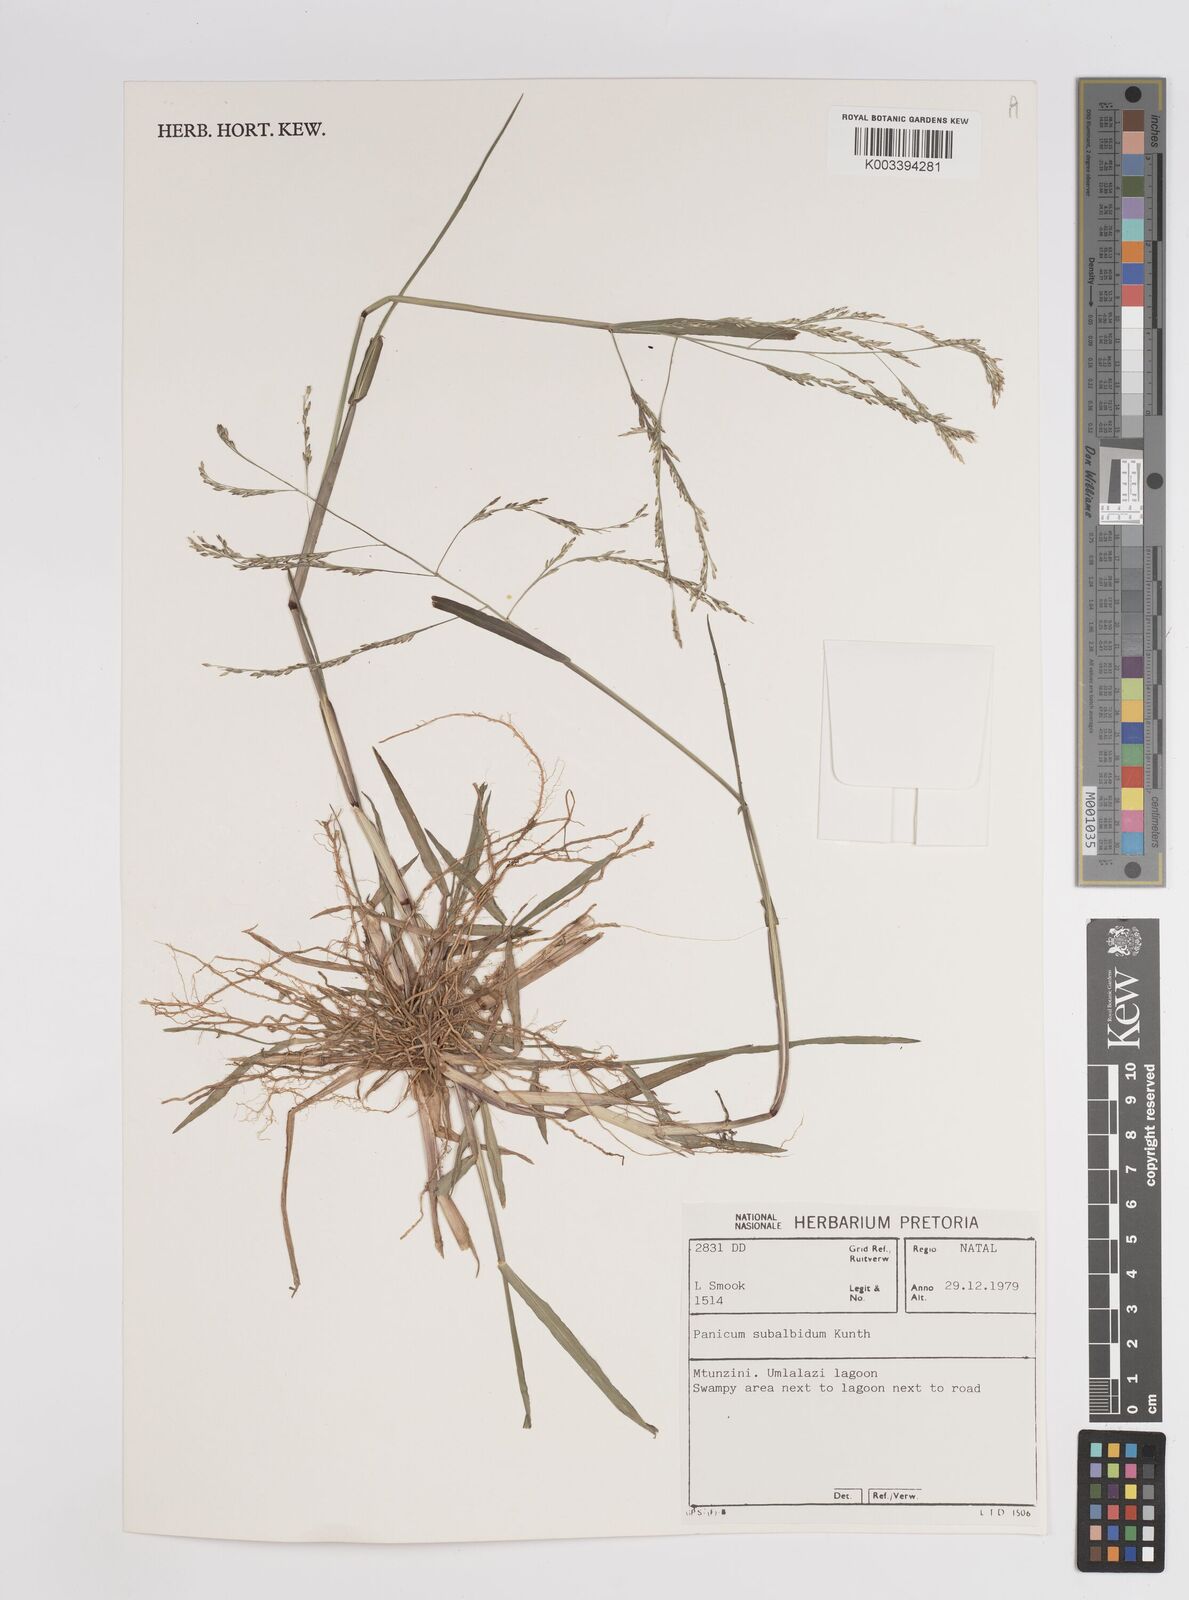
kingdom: Plantae
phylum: Tracheophyta
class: Liliopsida
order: Poales
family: Poaceae
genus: Panicum
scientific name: Panicum subalbidum
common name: Elbow buffalo grass
